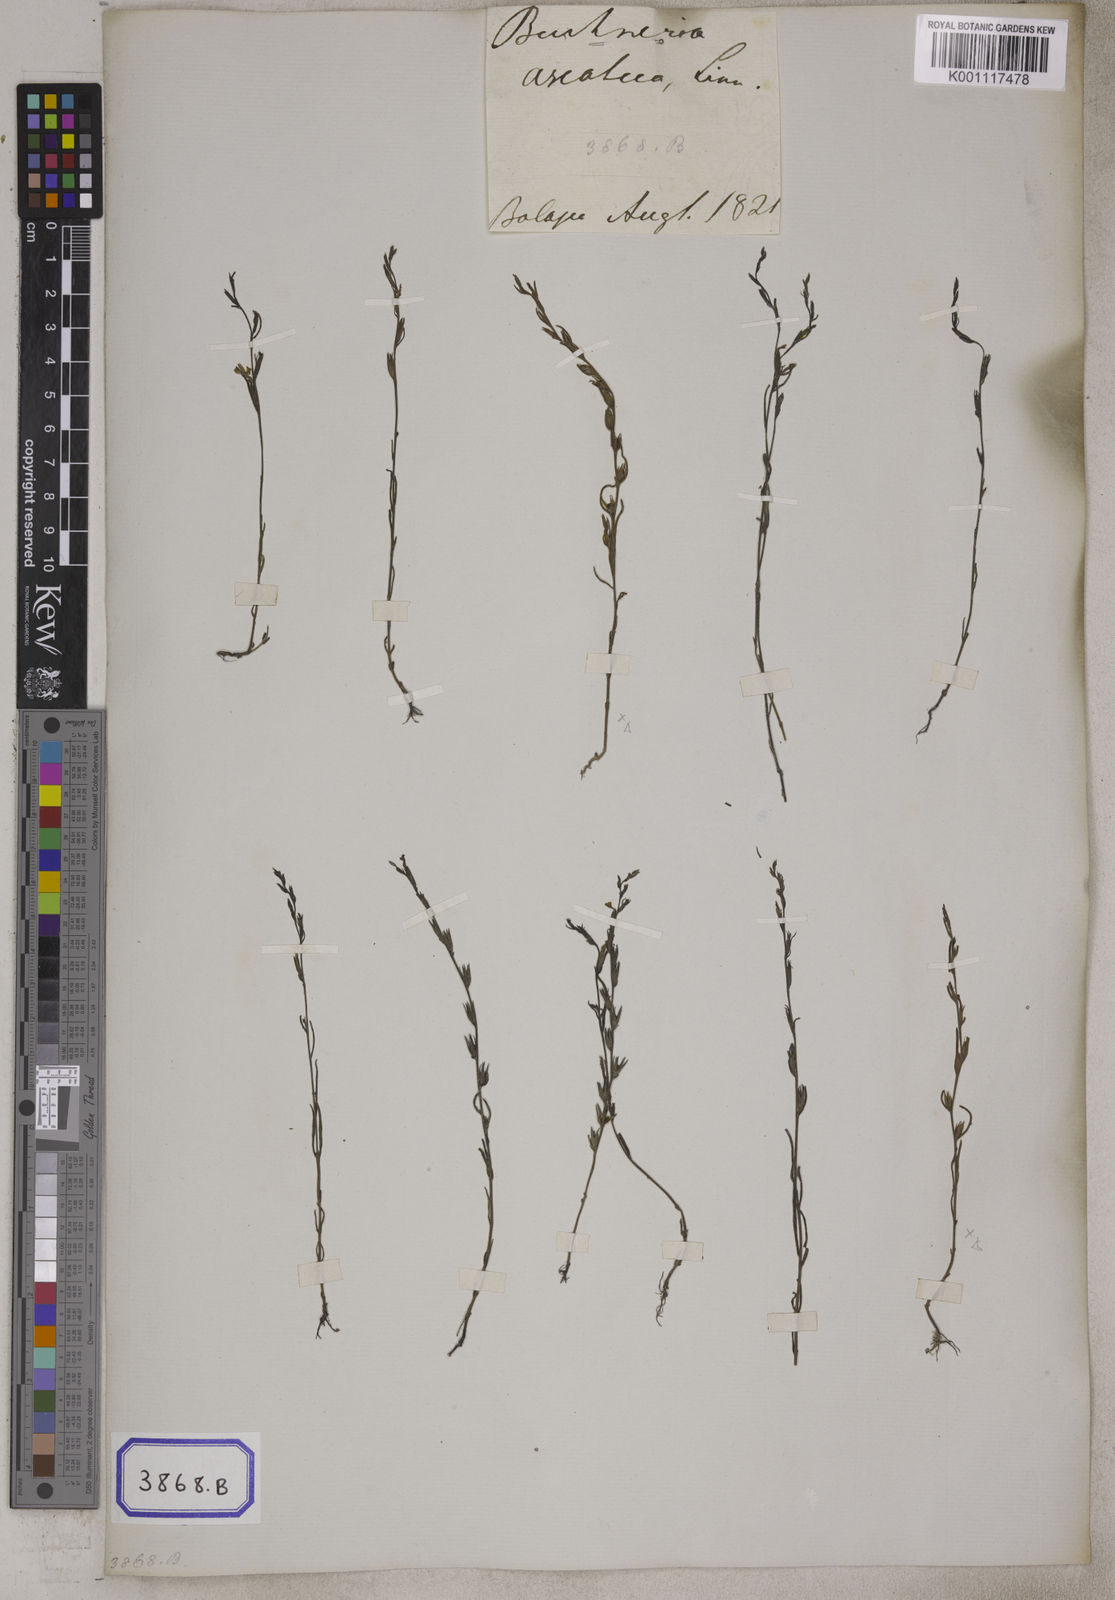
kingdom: Plantae
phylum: Tracheophyta
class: Magnoliopsida
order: Lamiales
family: Orobanchaceae
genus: Striga
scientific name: Striga angustifolia
